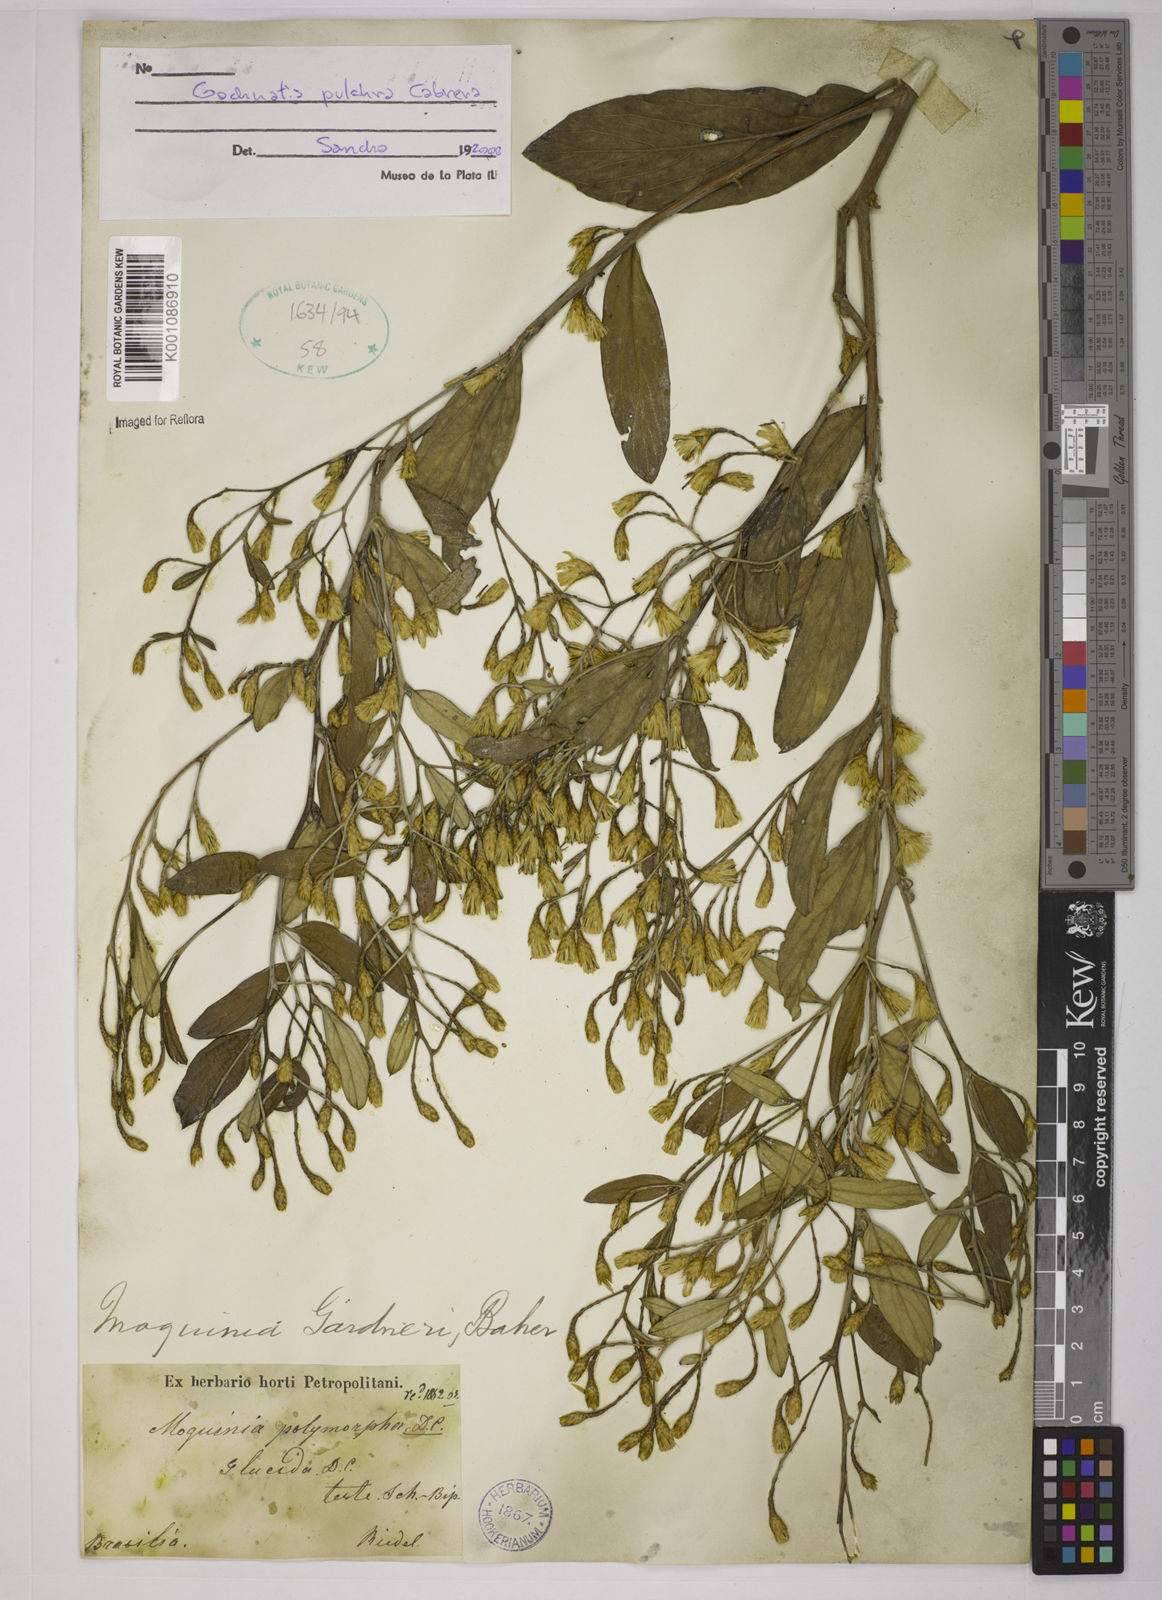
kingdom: Plantae
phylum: Tracheophyta
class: Magnoliopsida
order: Asterales
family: Asteraceae
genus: Moquiniastrum
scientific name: Moquiniastrum pulchrum
